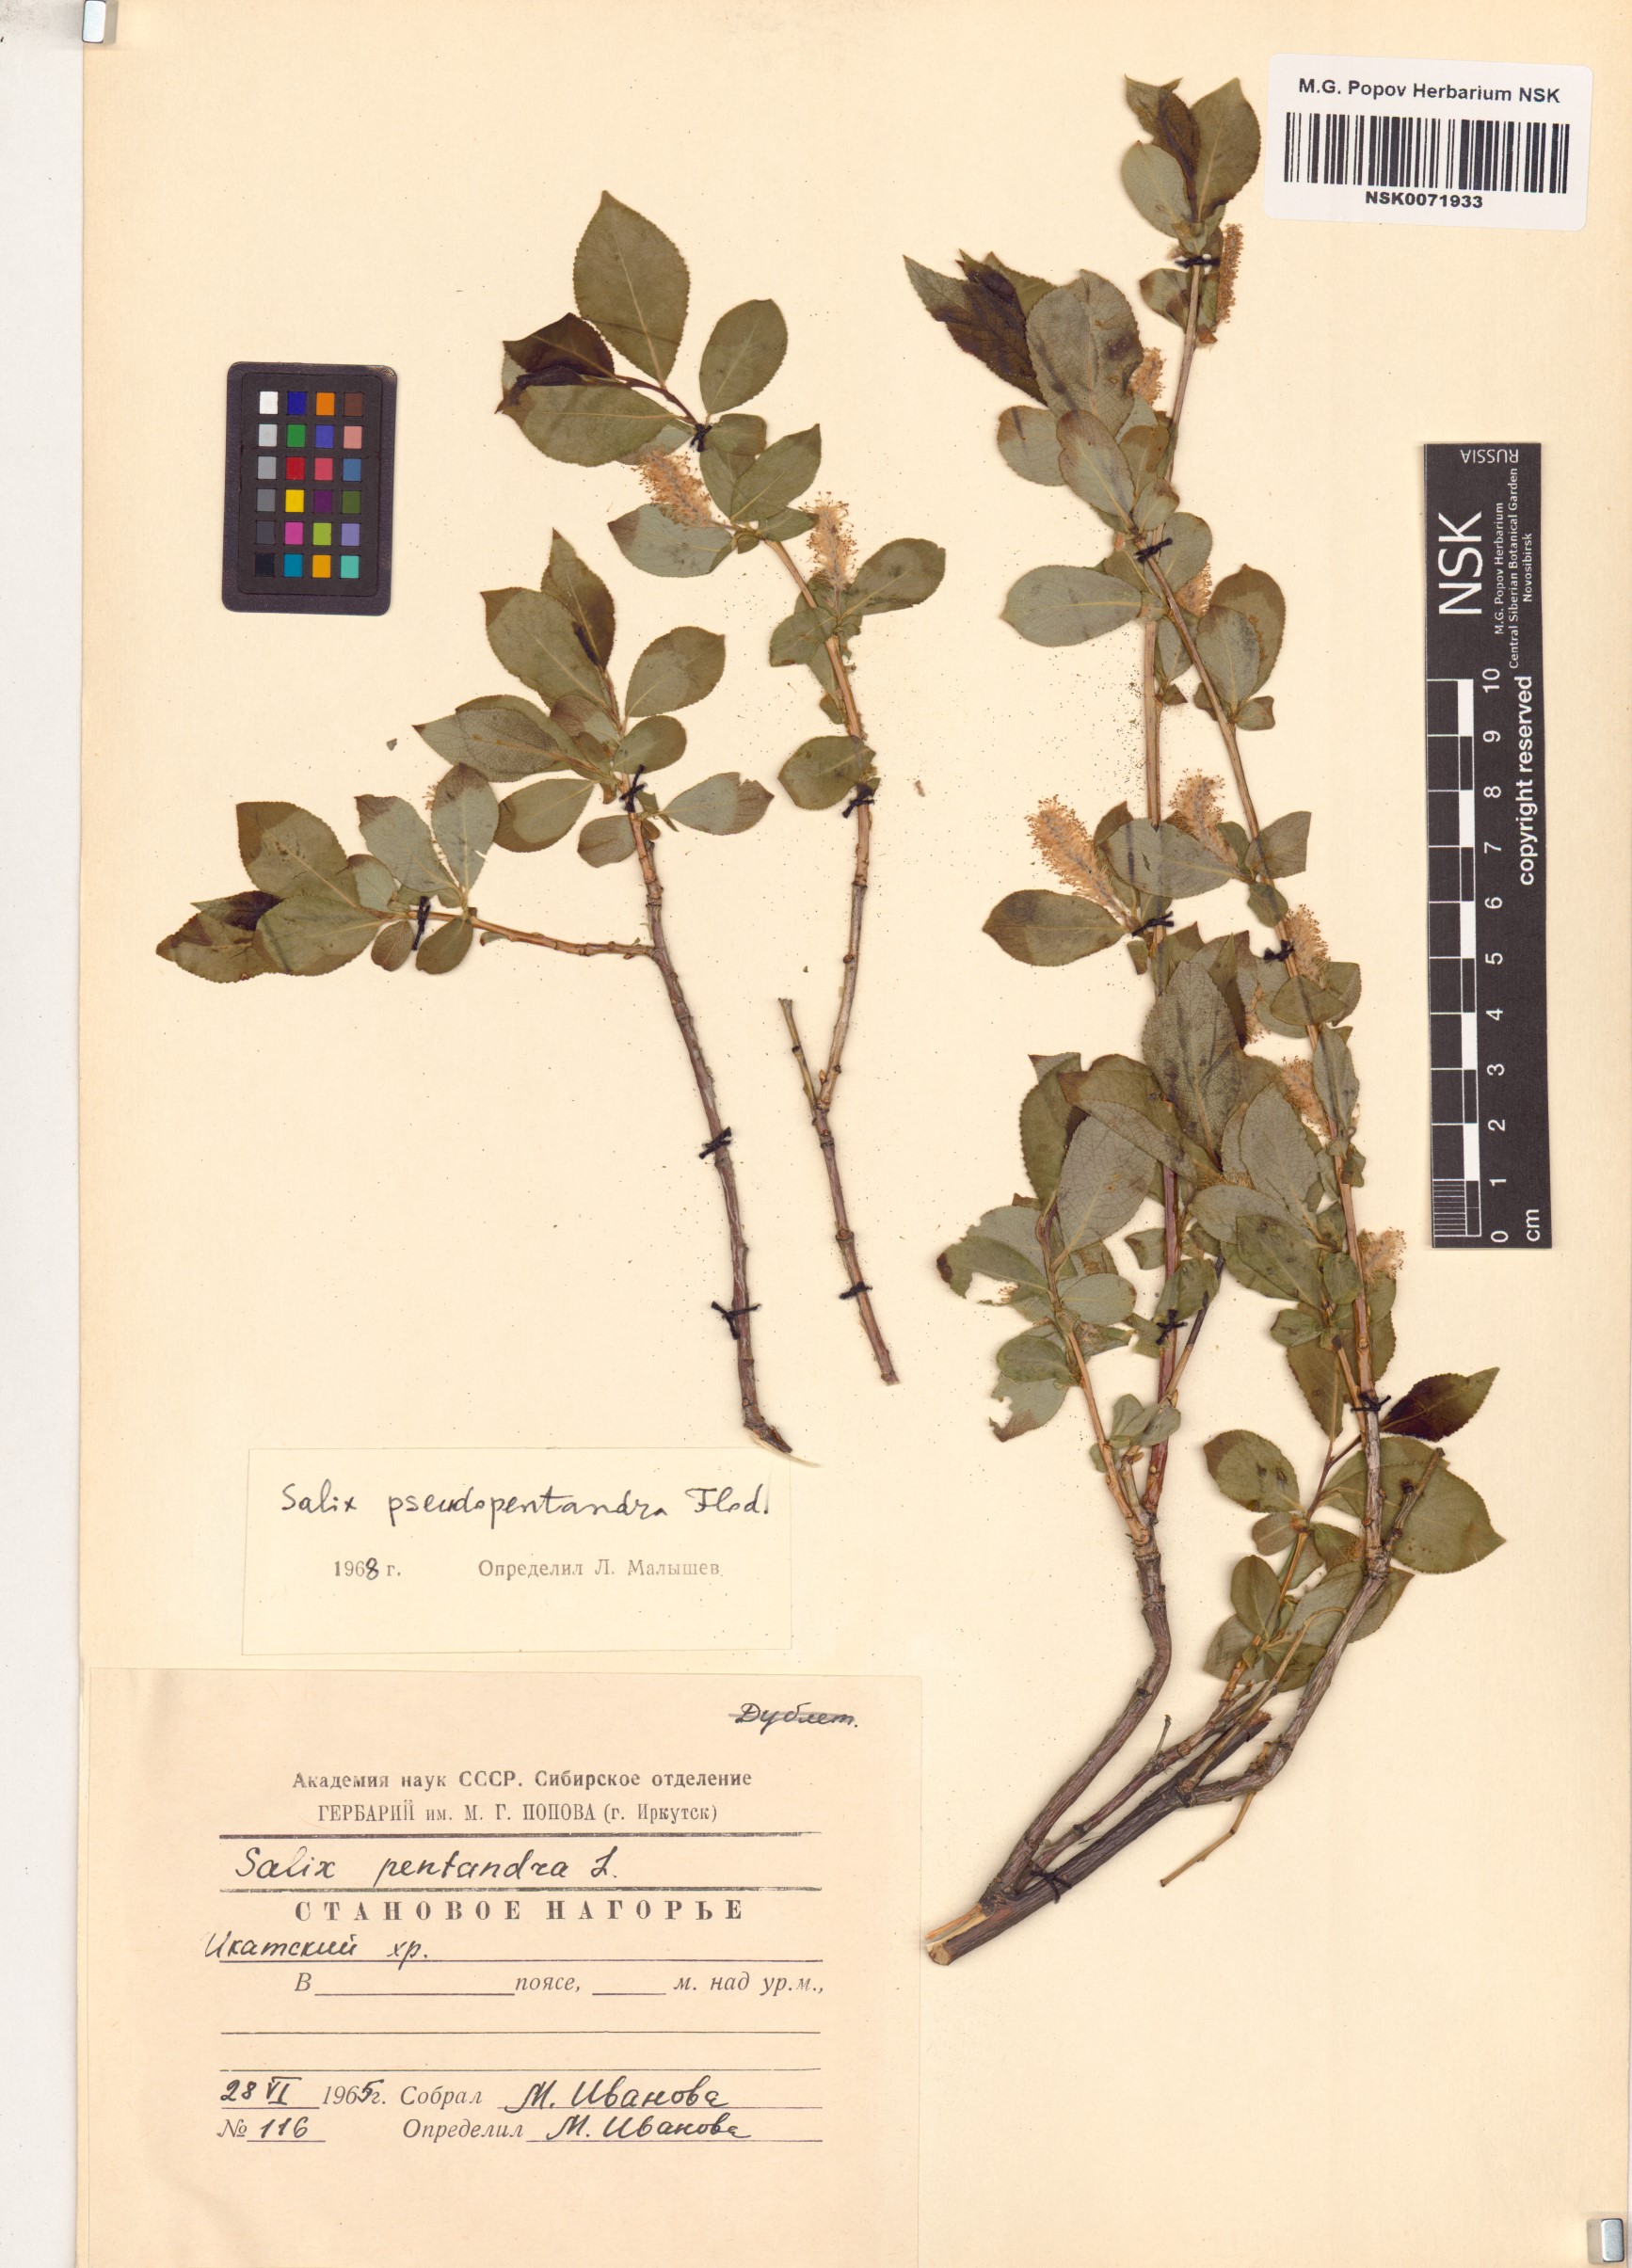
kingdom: Plantae
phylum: Tracheophyta
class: Magnoliopsida
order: Malpighiales
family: Salicaceae
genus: Salix
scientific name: Salix pseudopentandra
